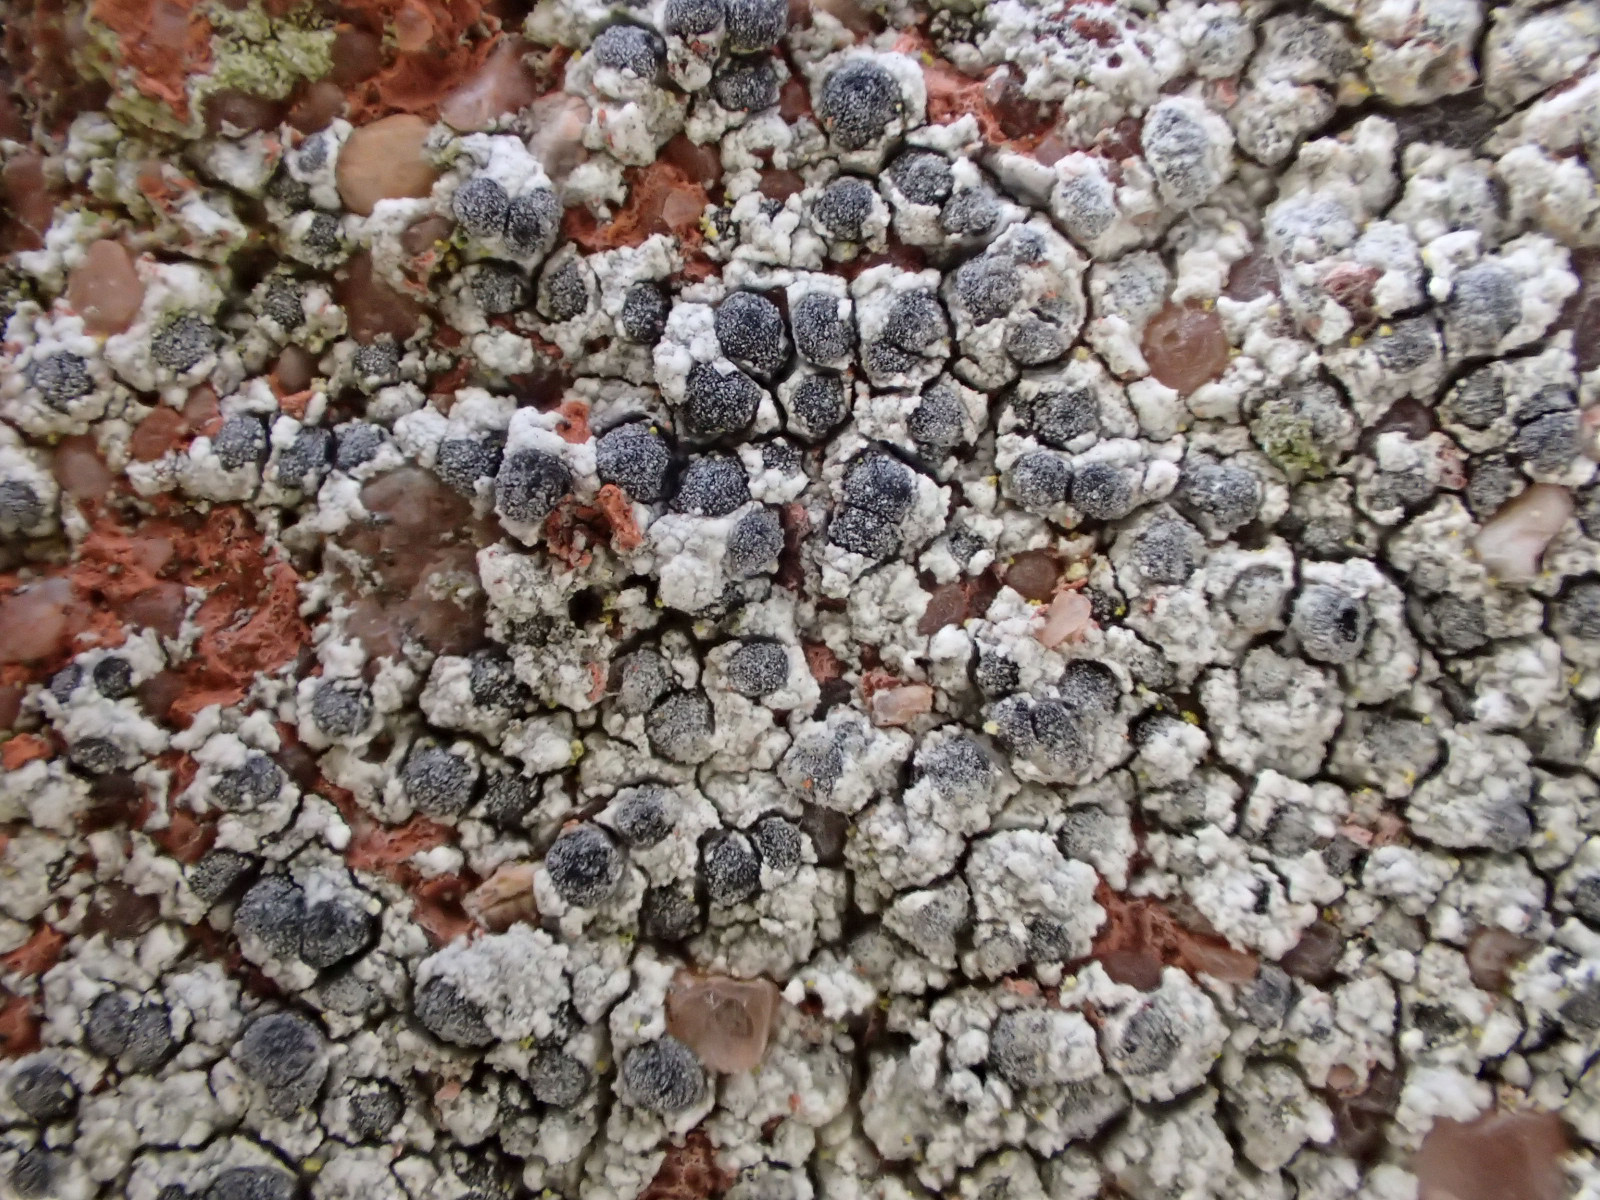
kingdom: Fungi
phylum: Ascomycota
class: Lecanoromycetes
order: Caliciales
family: Caliciaceae
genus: Diplotomma
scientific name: Diplotomma alboatrum
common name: sorthvid sortskivelav
